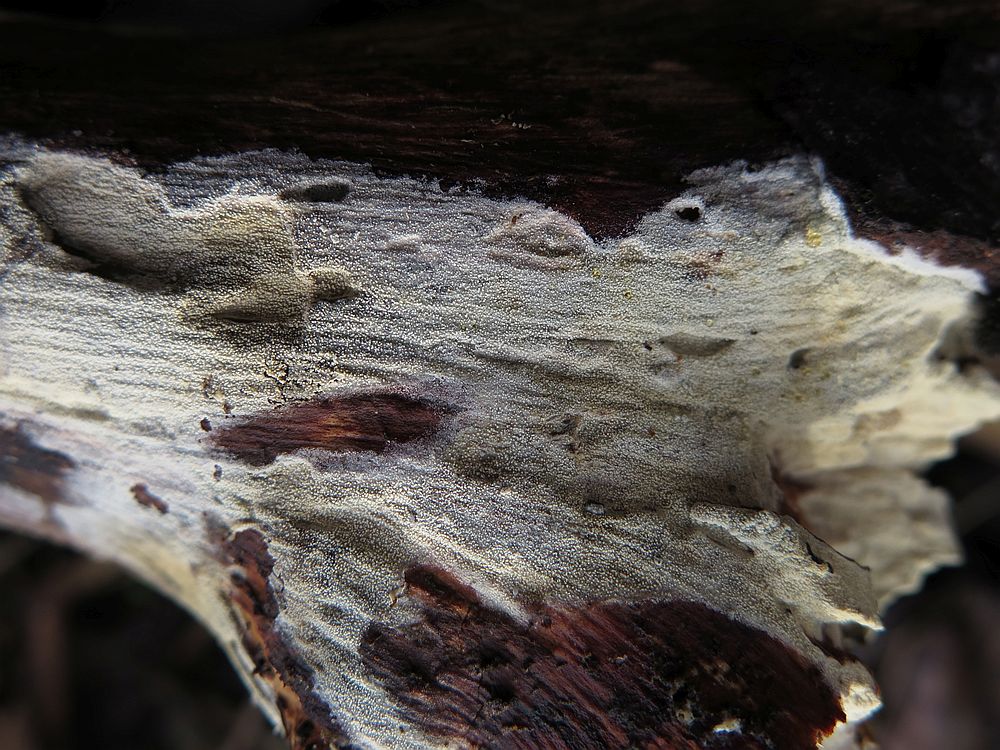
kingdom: Fungi
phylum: Basidiomycota
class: Agaricomycetes
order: Trechisporales
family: Hydnodontaceae
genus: Brevicellicium
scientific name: Brevicellicium olivascens
